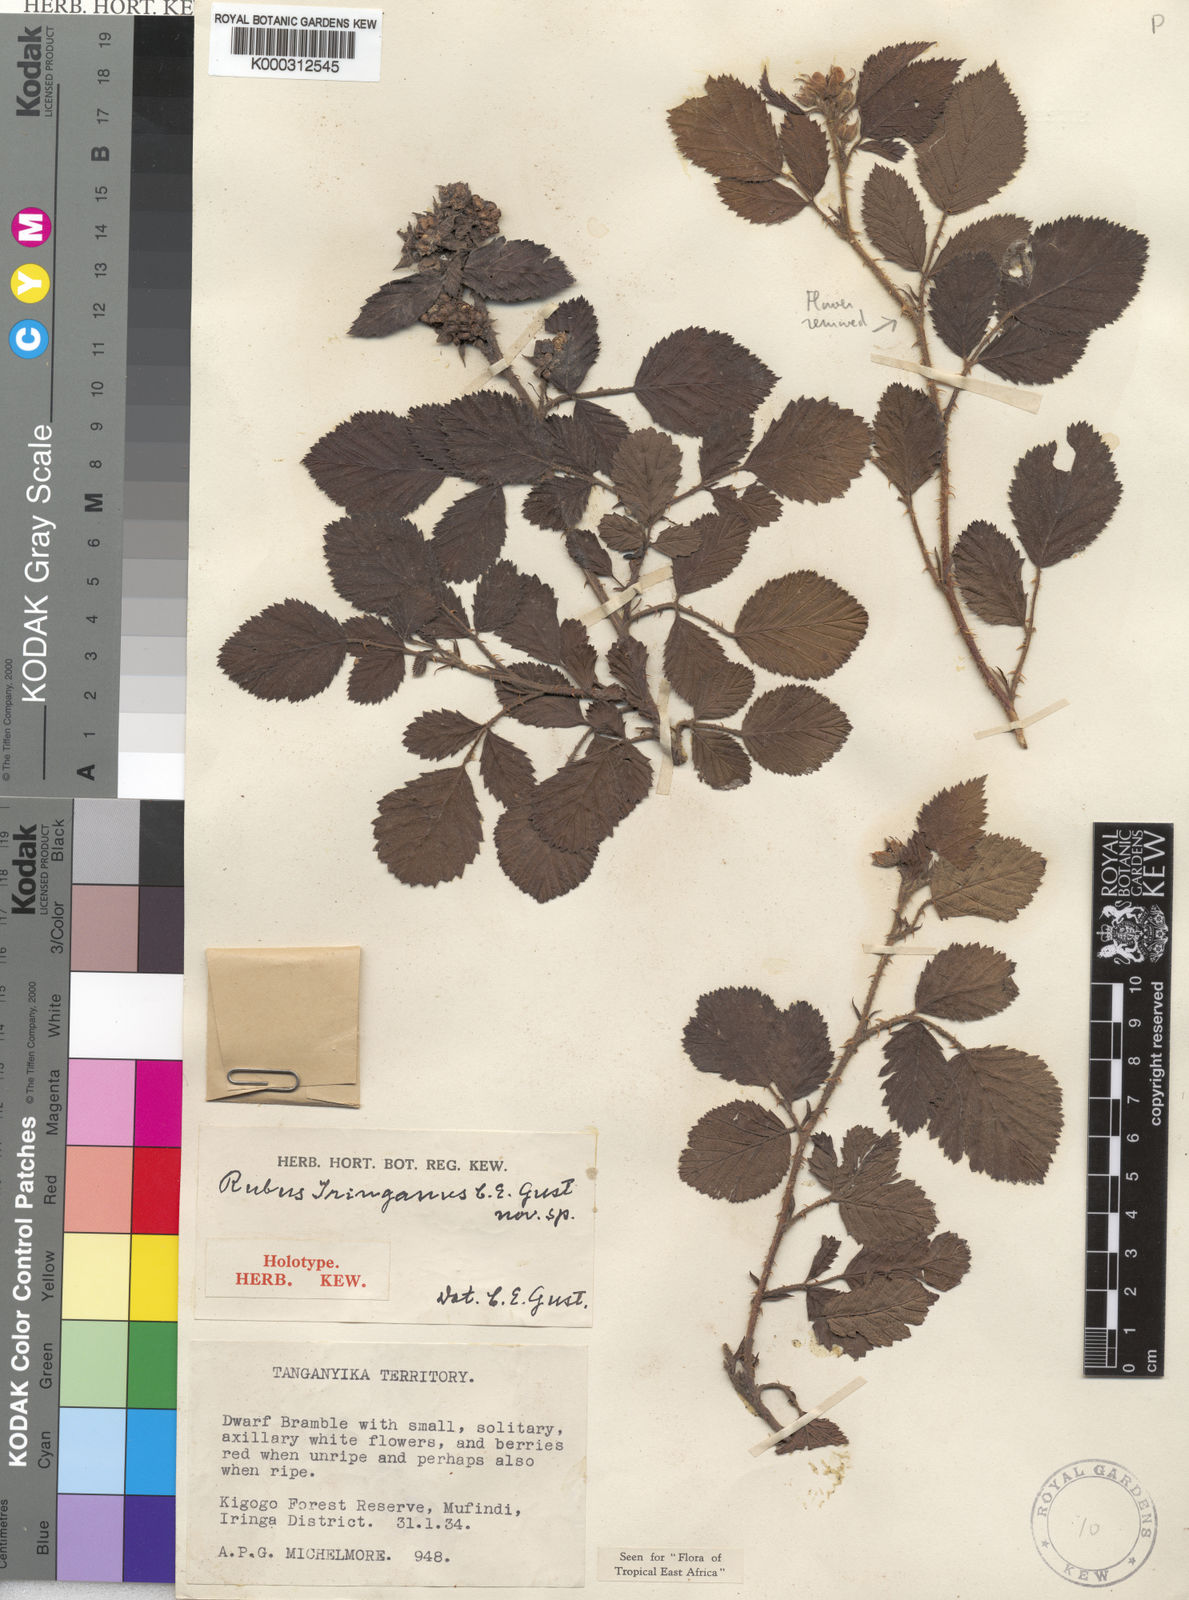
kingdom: Plantae
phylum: Tracheophyta
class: Magnoliopsida
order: Rosales
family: Rosaceae
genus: Rubus
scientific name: Rubus iringanus
